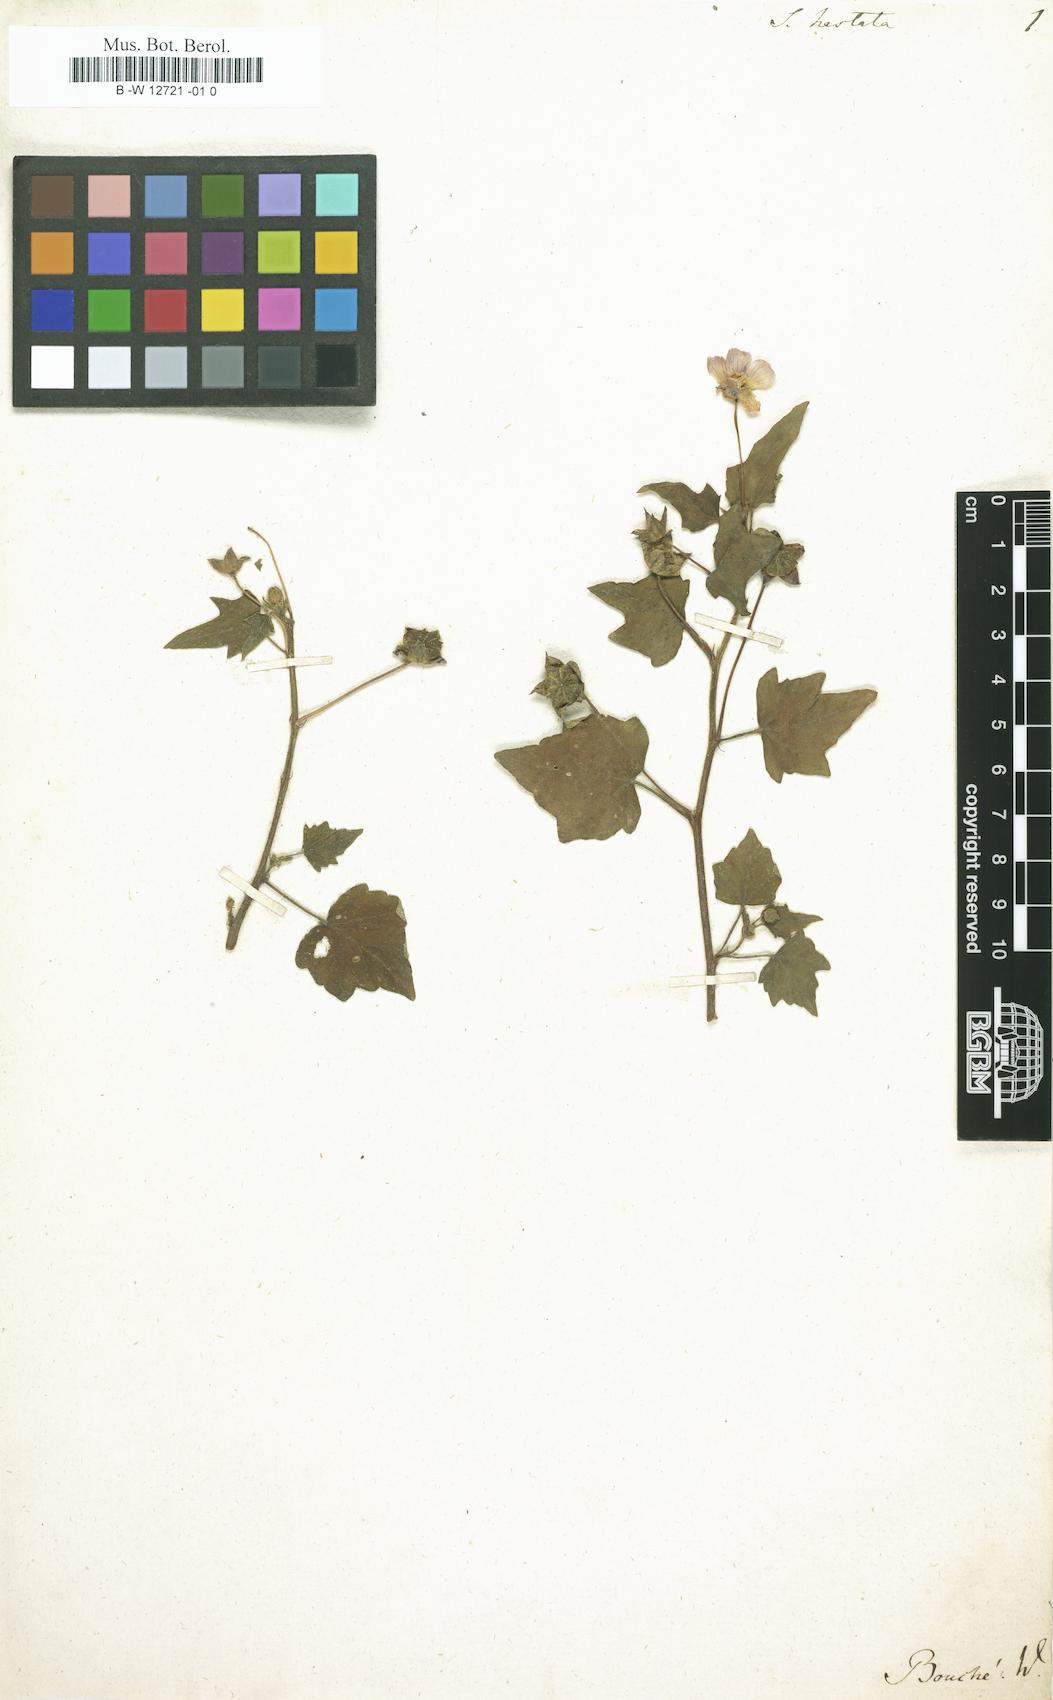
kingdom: Plantae
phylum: Tracheophyta
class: Magnoliopsida
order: Malvales
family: Malvaceae
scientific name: Malvaceae
